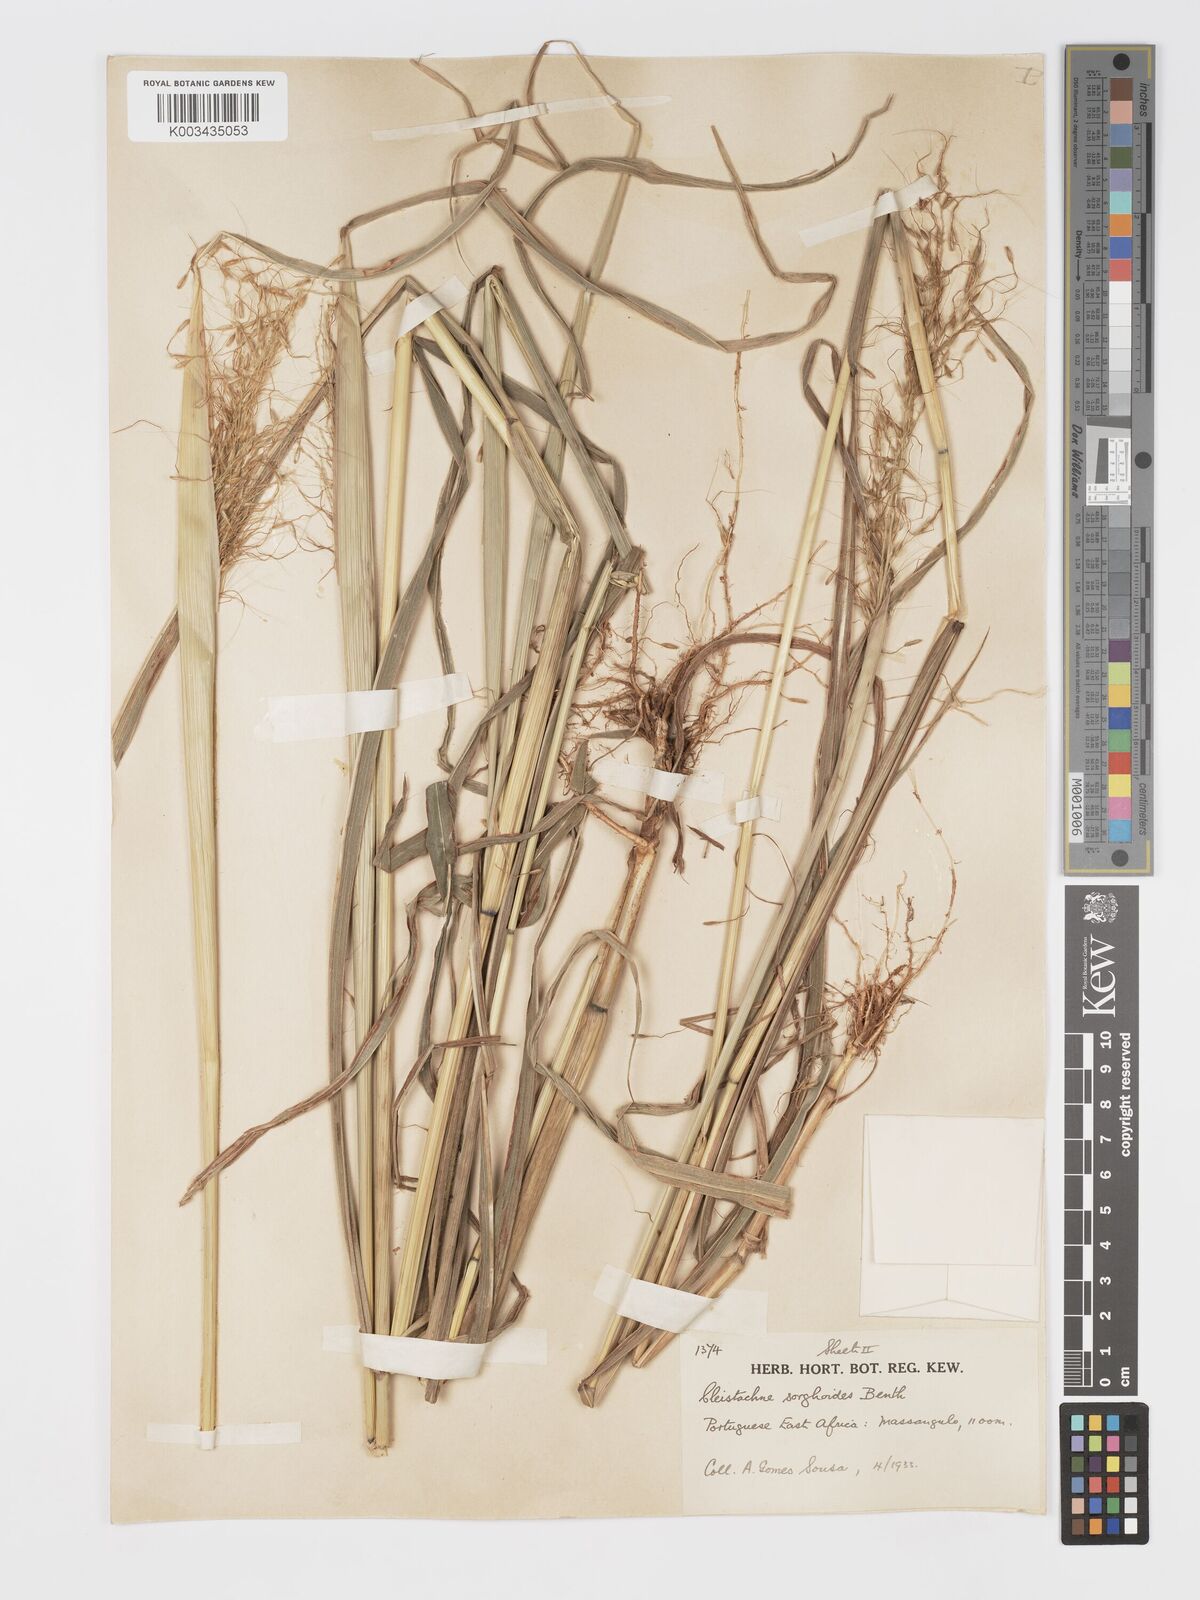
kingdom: Plantae
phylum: Tracheophyta
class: Liliopsida
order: Poales
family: Poaceae
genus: Cleistachne
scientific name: Cleistachne sorghoides
